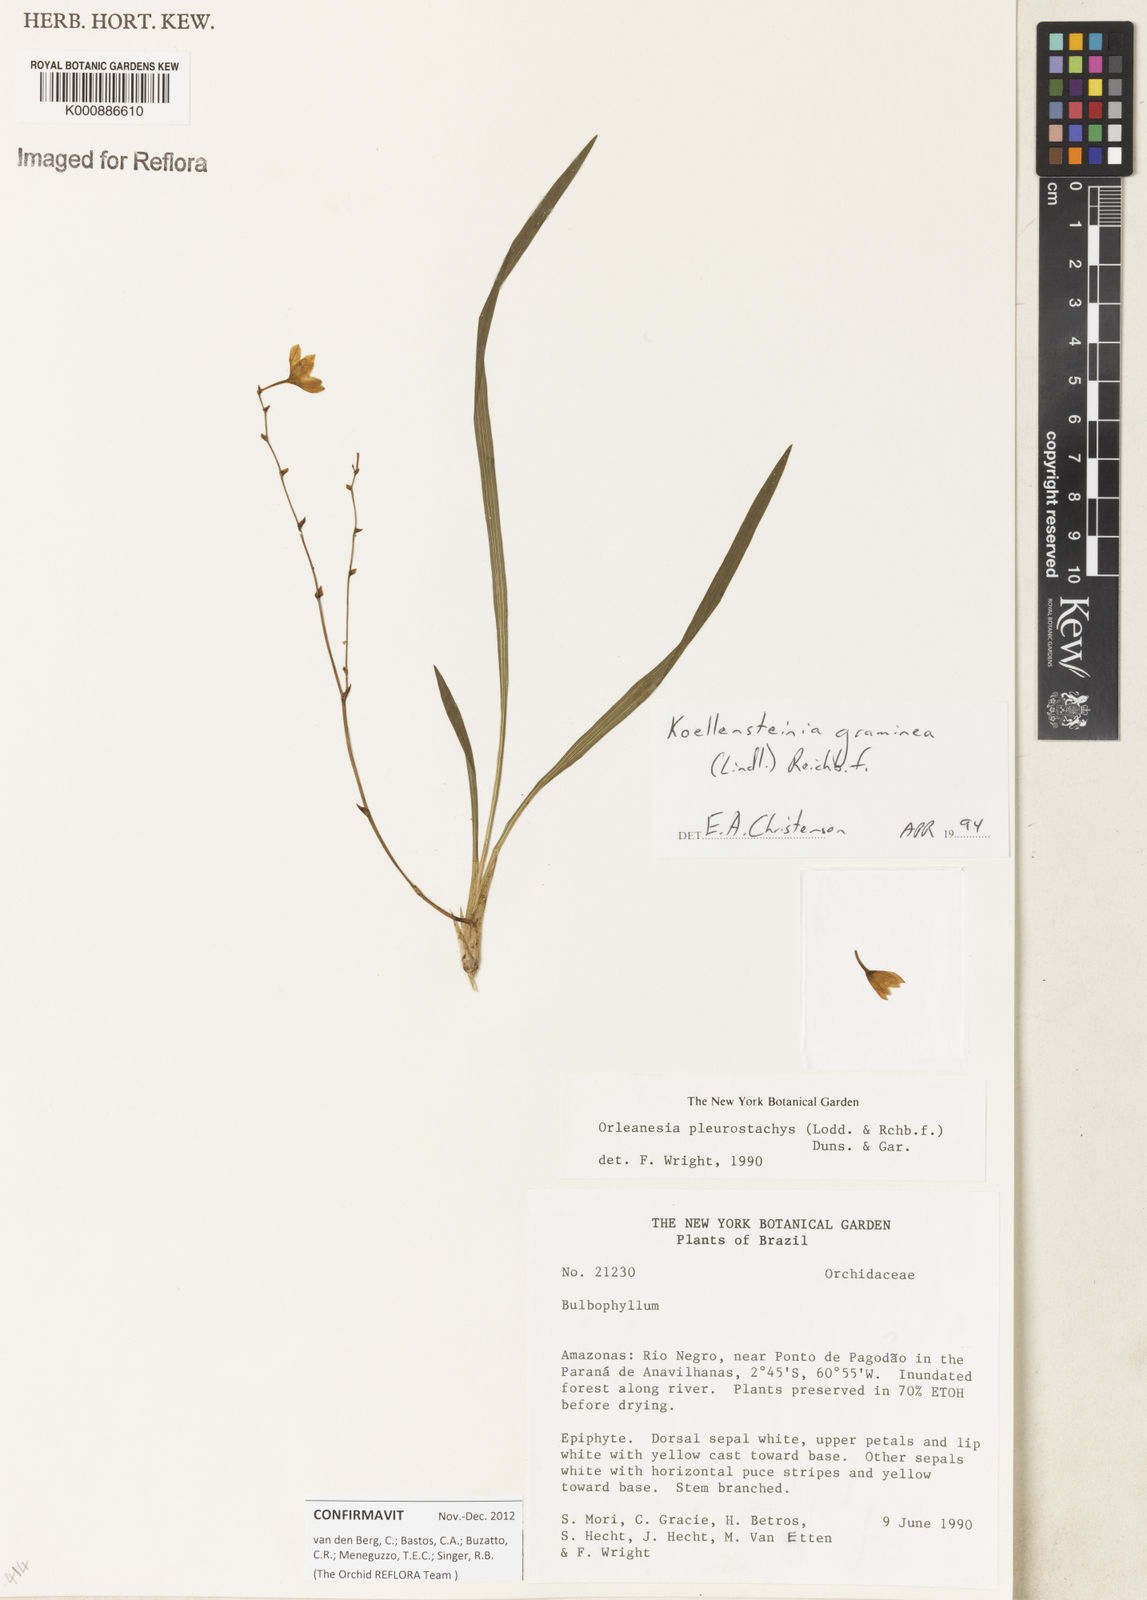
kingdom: Plantae
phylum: Tracheophyta
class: Liliopsida
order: Asparagales
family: Orchidaceae
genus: Koellensteinia
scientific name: Koellensteinia graminea
